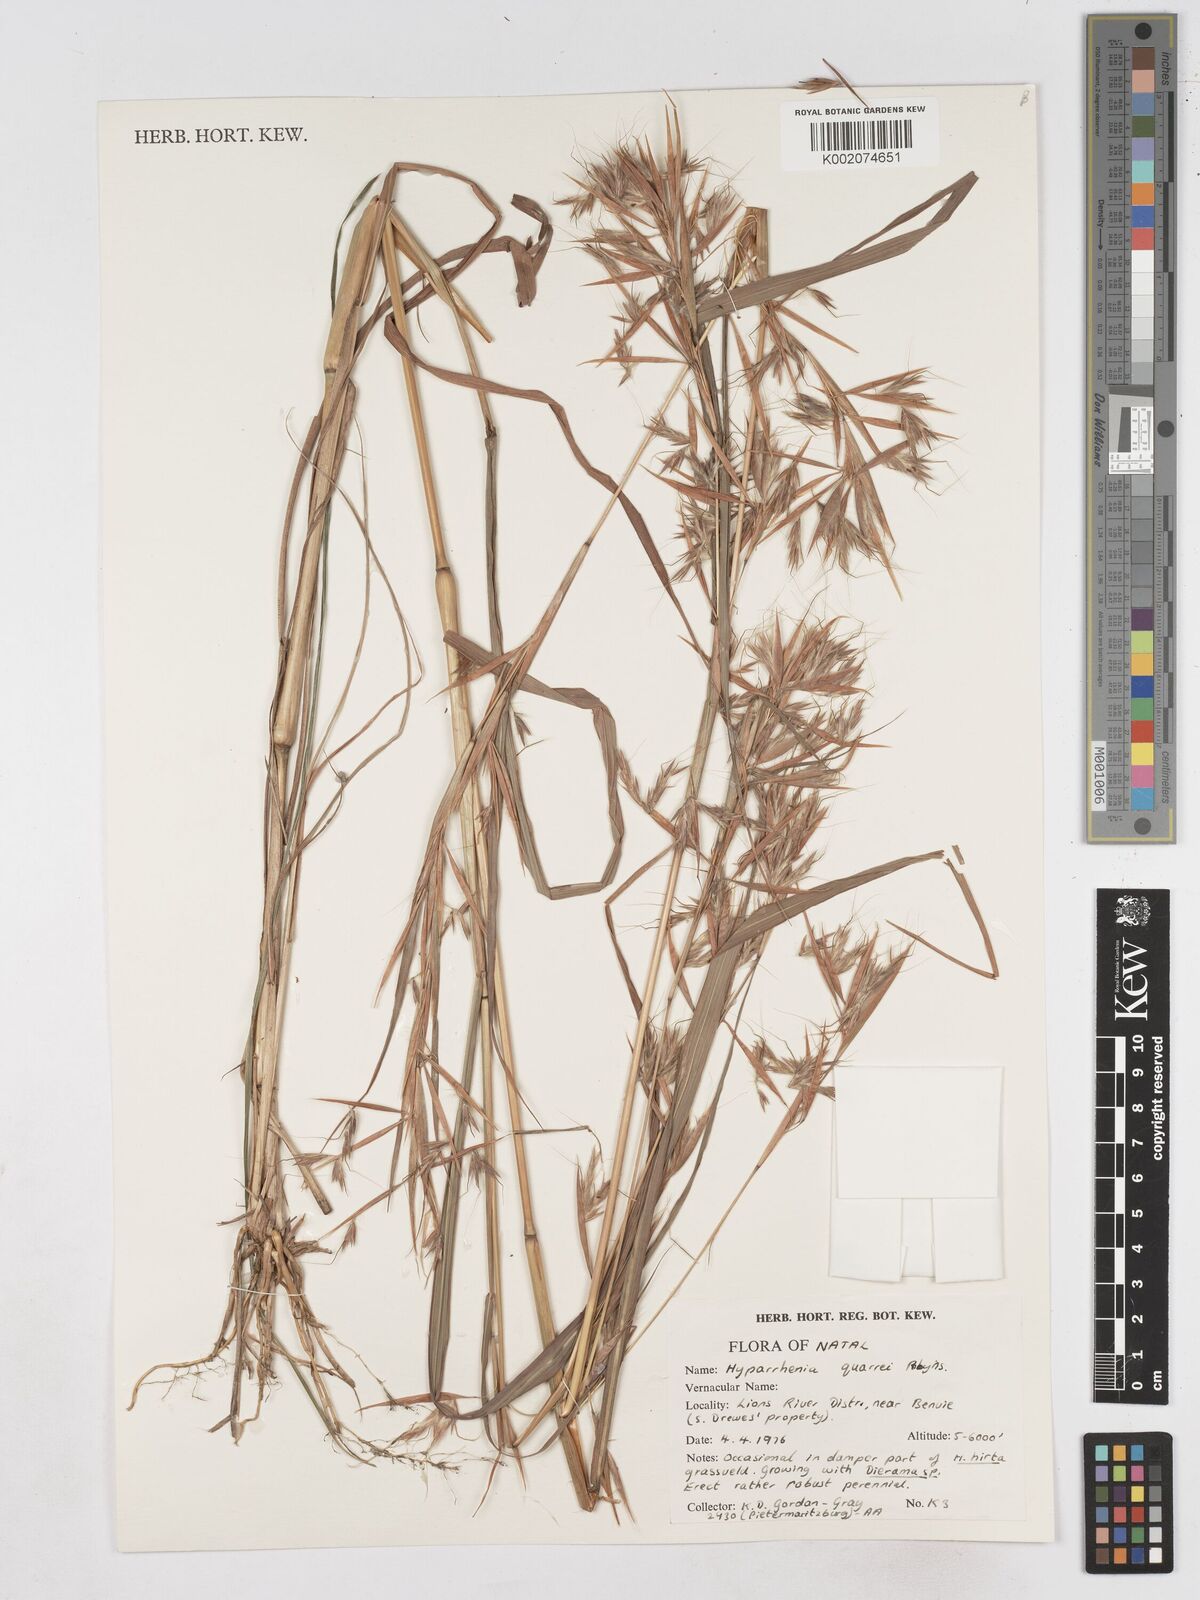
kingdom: Plantae
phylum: Tracheophyta
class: Liliopsida
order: Poales
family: Poaceae
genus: Hyparrhenia
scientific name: Hyparrhenia quarrei
